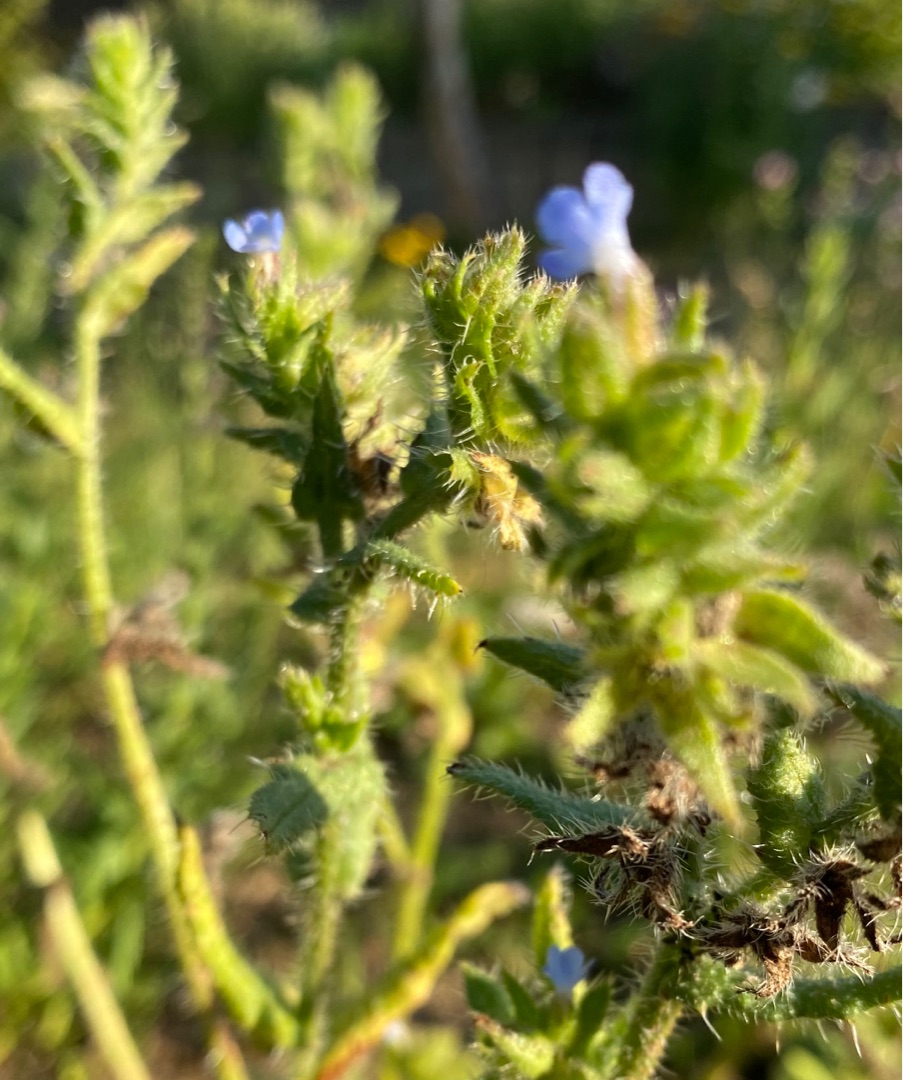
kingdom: Plantae
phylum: Tracheophyta
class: Magnoliopsida
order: Boraginales
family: Boraginaceae
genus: Lycopsis
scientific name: Lycopsis arvensis
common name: Krumhals
